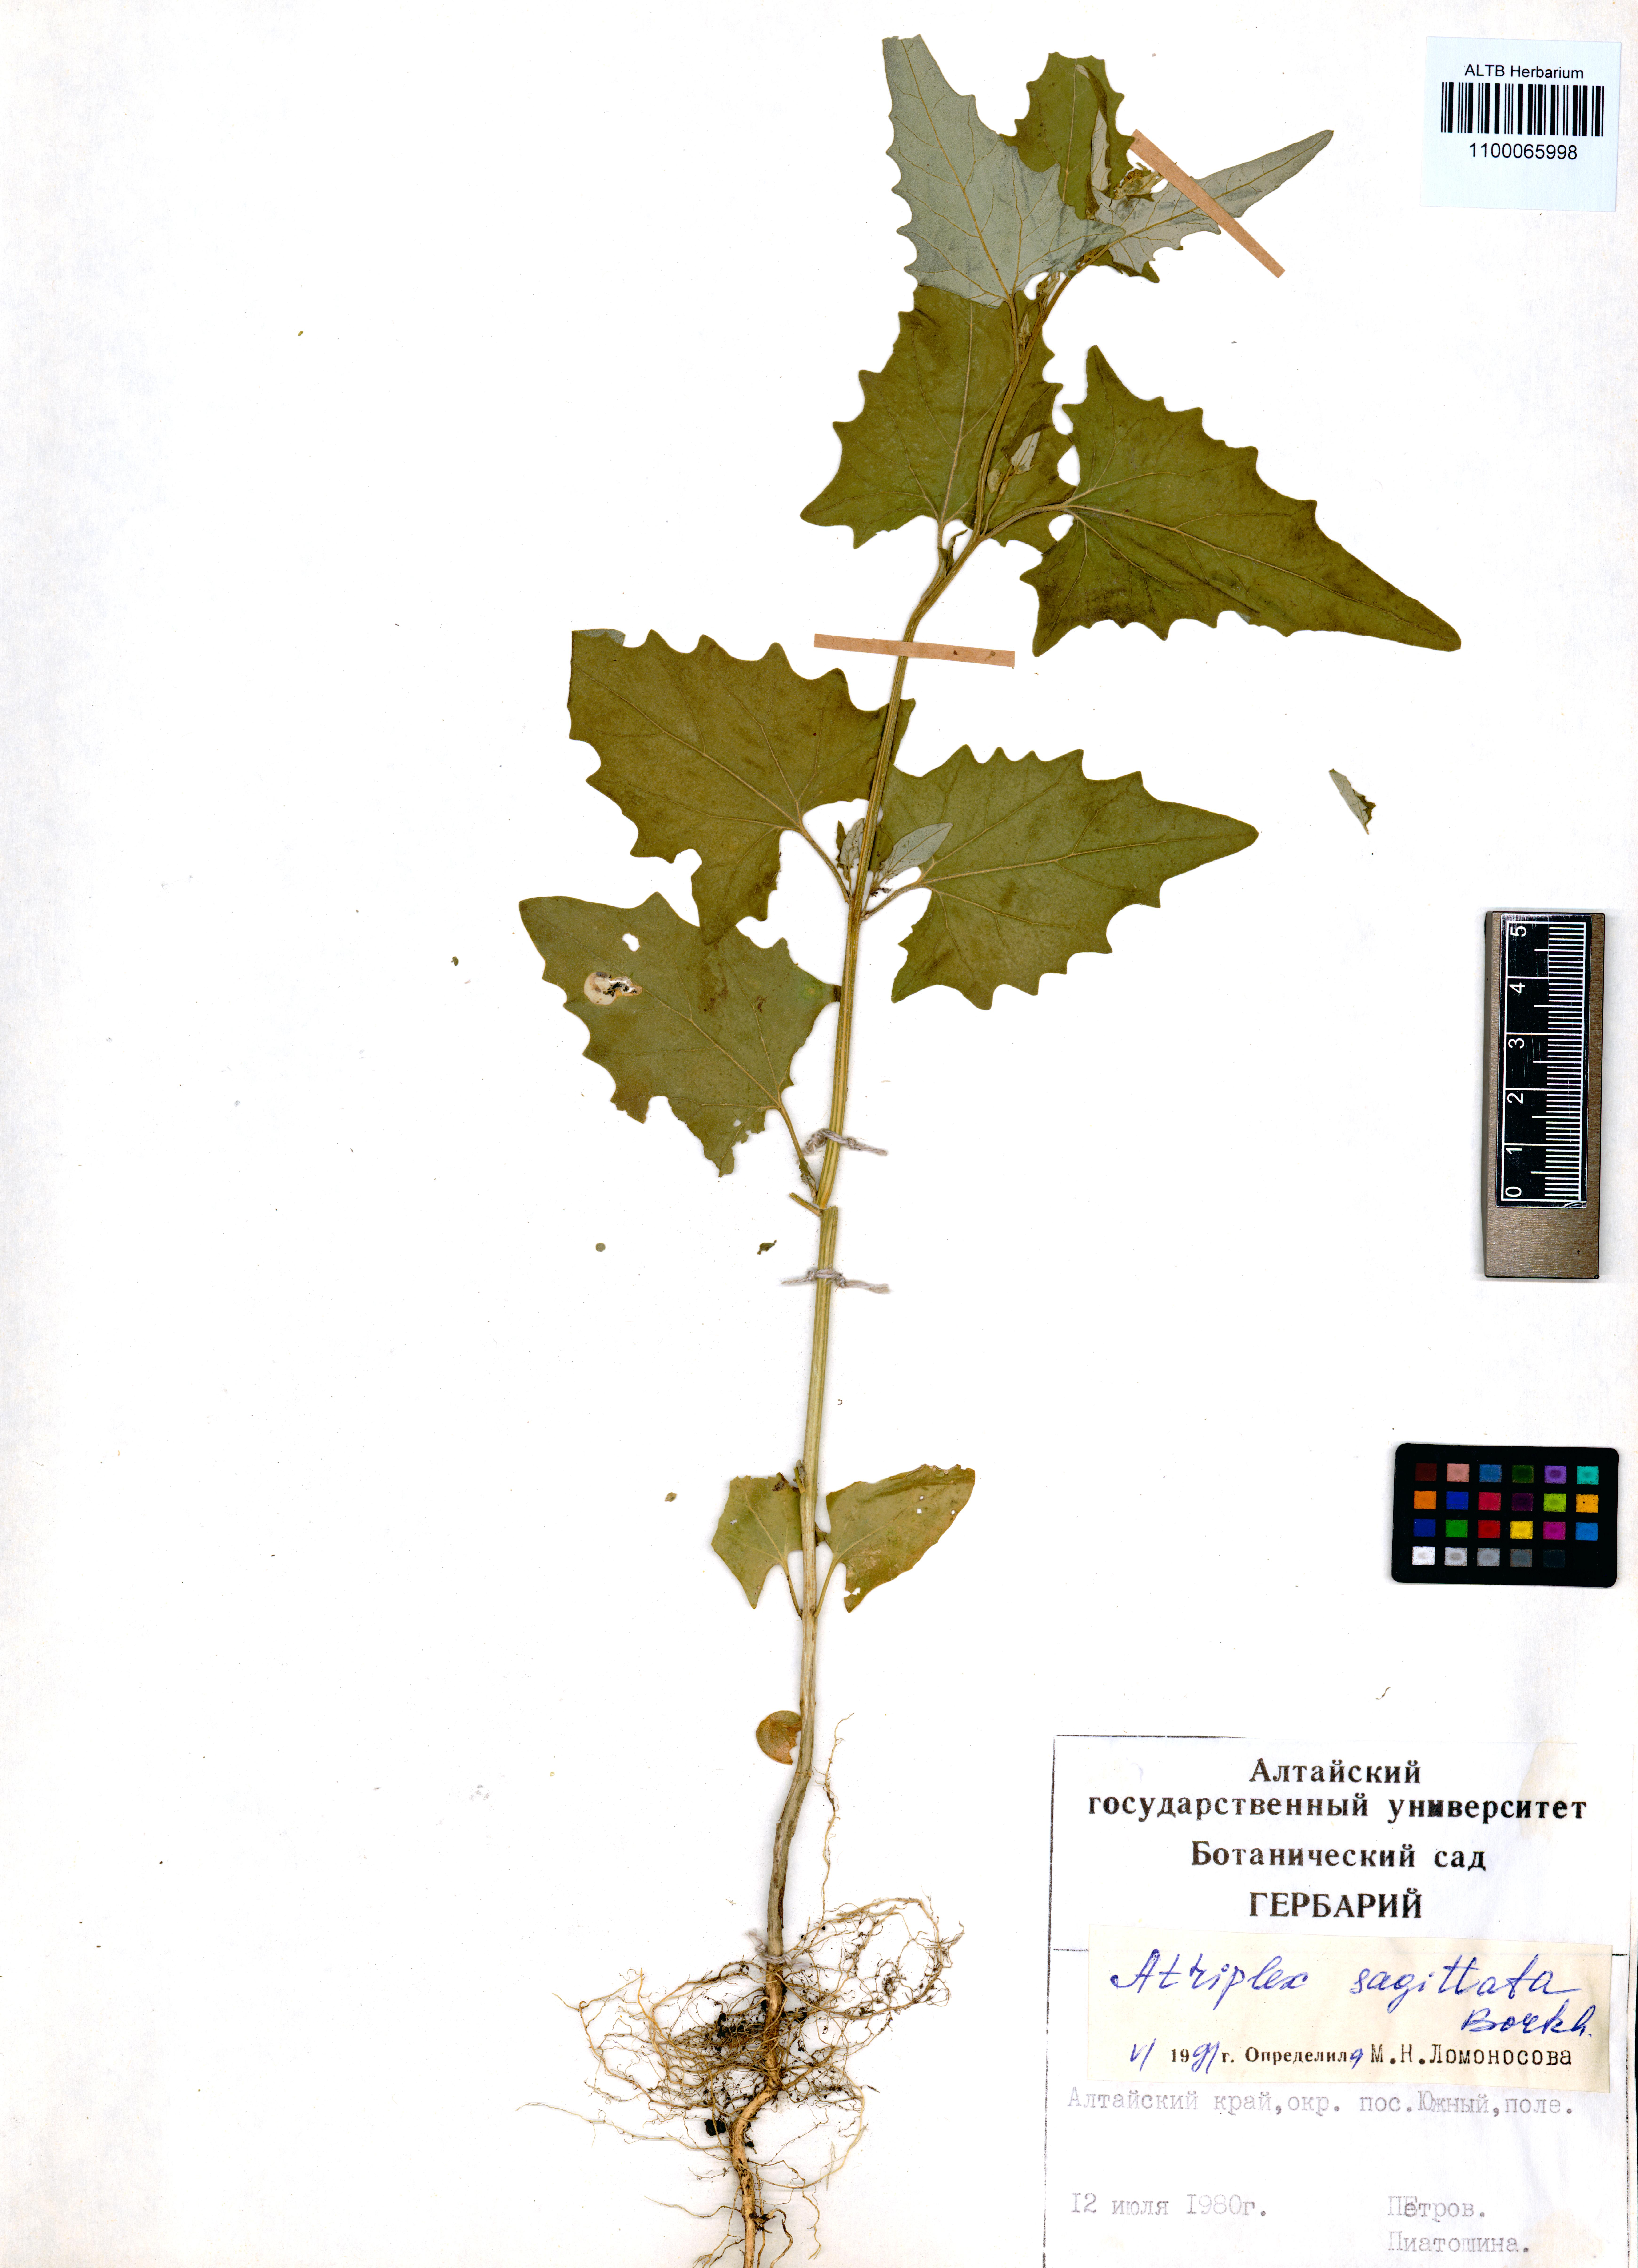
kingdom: Plantae
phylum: Tracheophyta
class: Magnoliopsida
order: Caryophyllales
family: Amaranthaceae
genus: Atriplex
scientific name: Atriplex sagittata
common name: Purple orache
